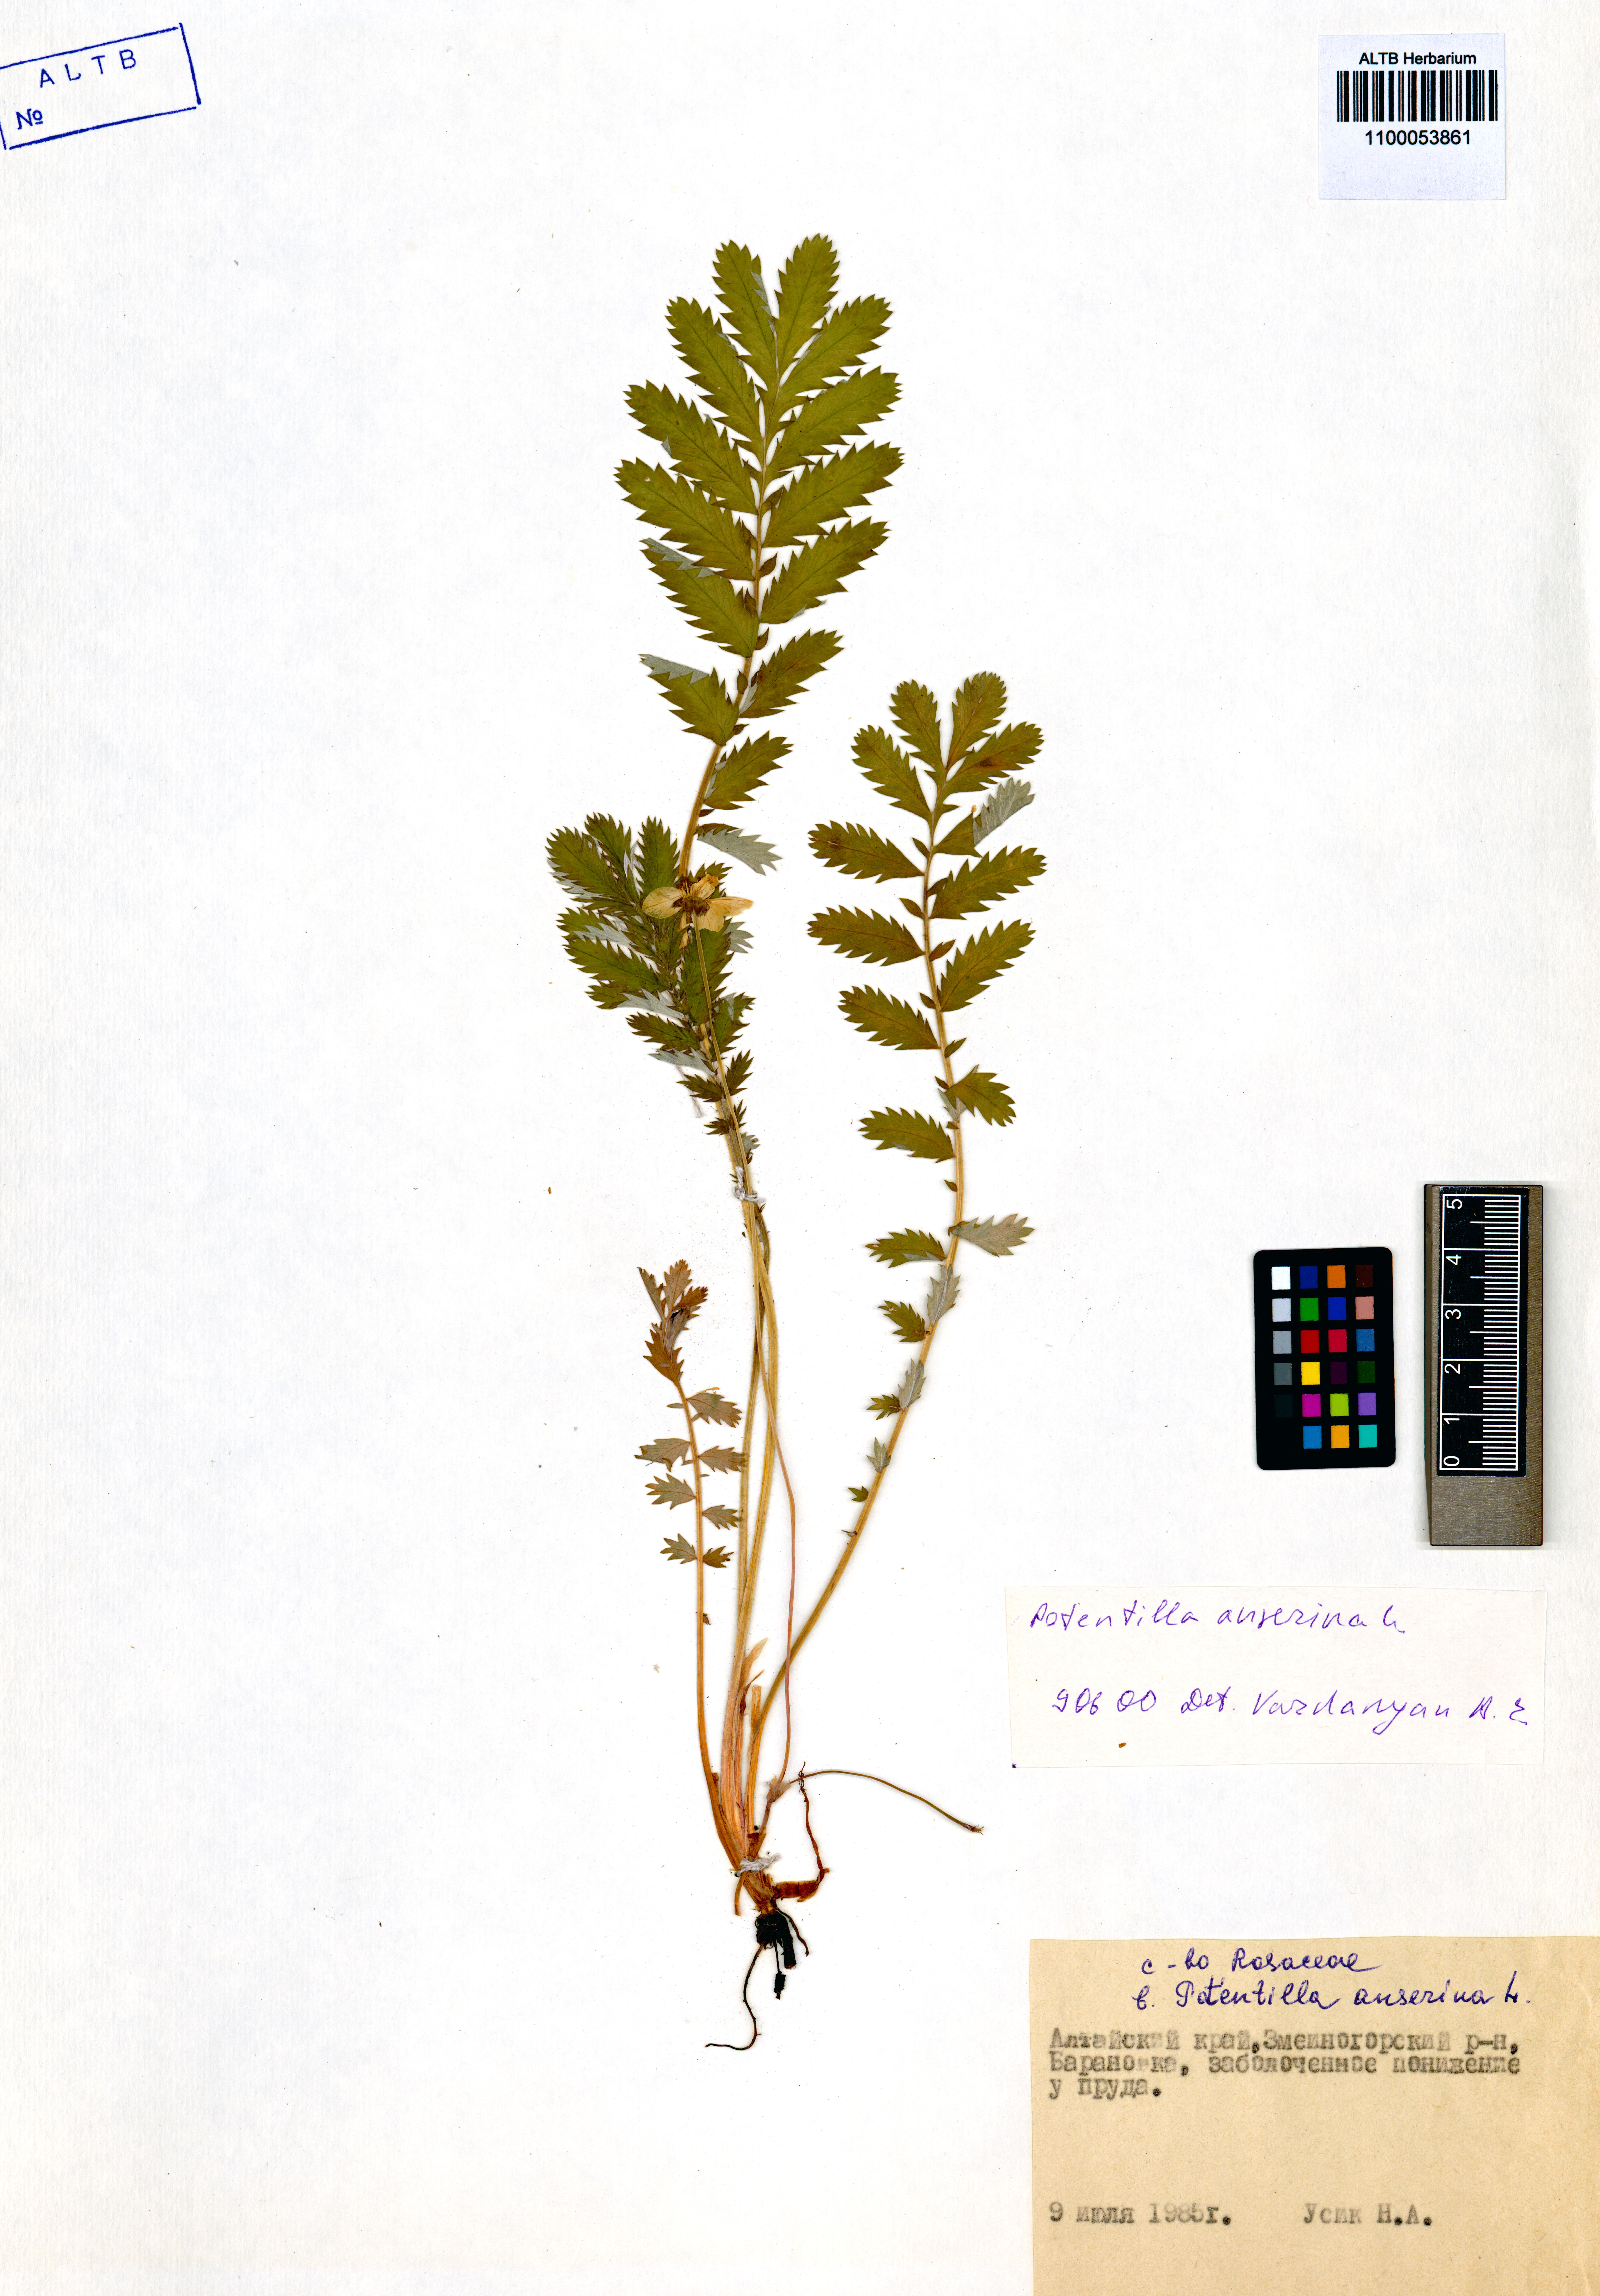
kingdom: Plantae
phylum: Tracheophyta
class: Magnoliopsida
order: Rosales
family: Rosaceae
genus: Argentina
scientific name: Argentina anserina
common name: Common silverweed
